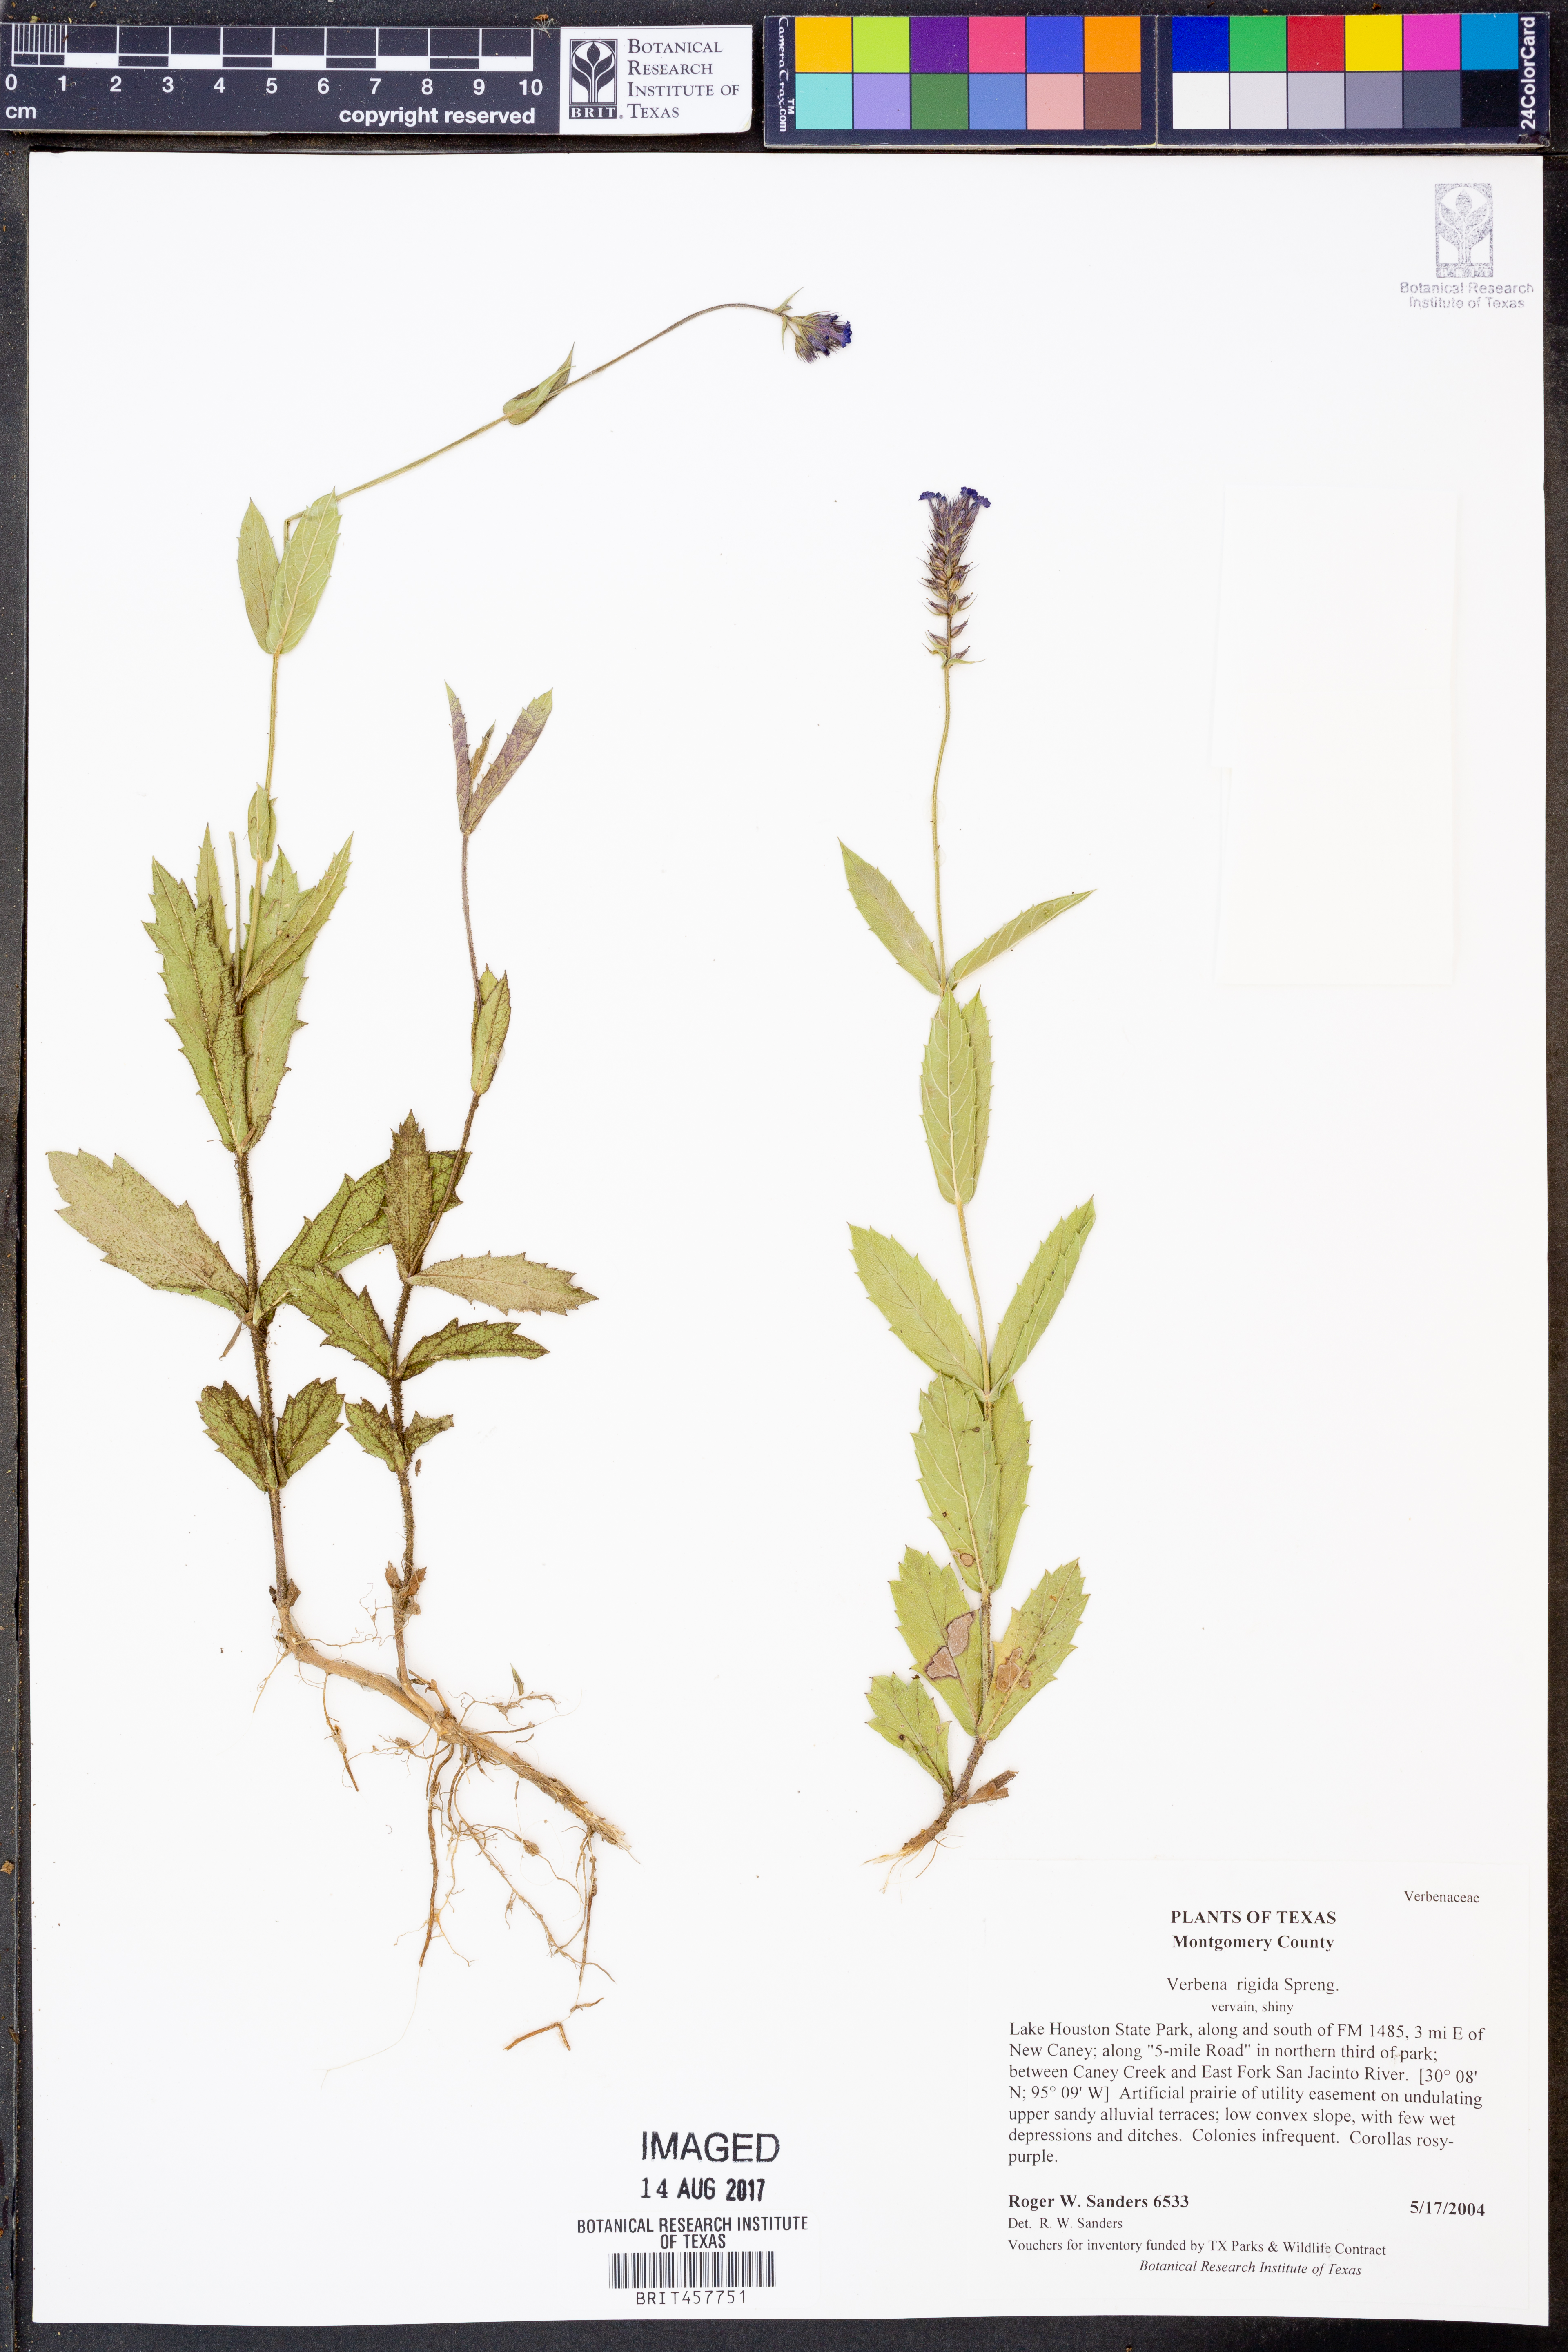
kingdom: Plantae
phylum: Tracheophyta
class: Magnoliopsida
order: Lamiales
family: Verbenaceae
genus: Verbena
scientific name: Verbena rigida
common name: Slender vervain
